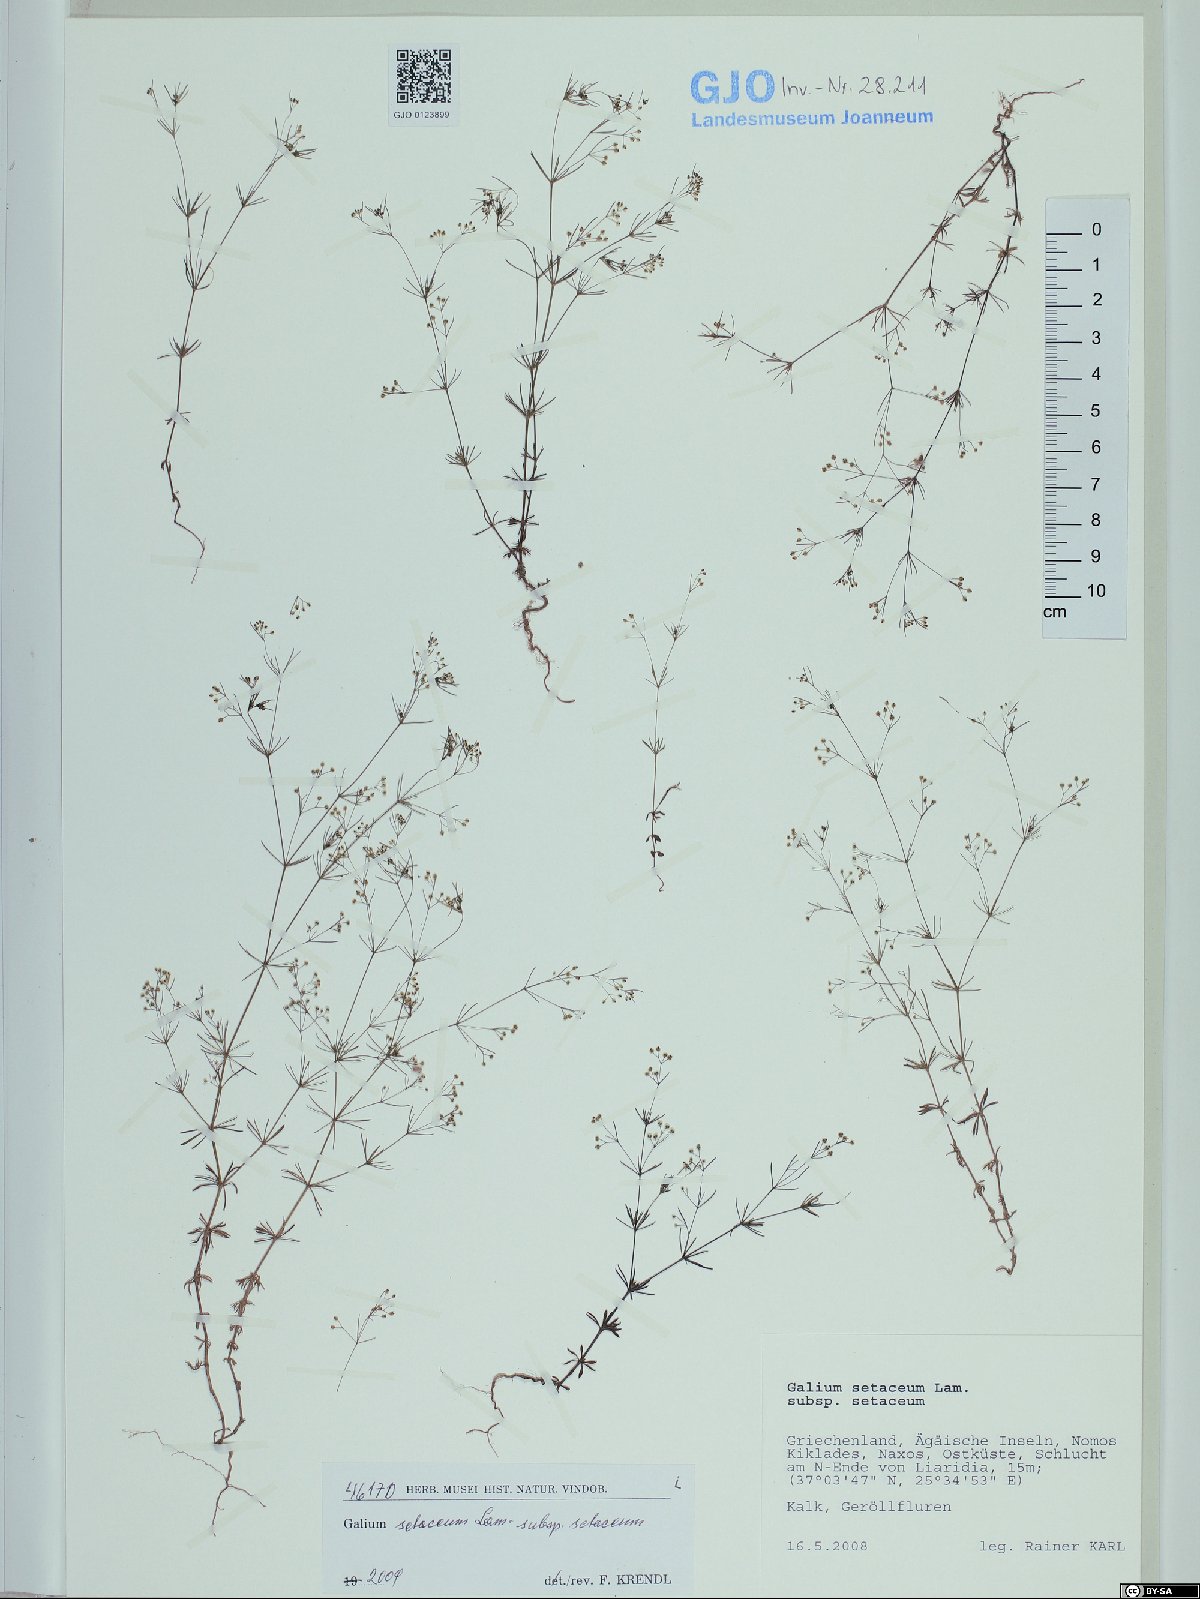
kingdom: Plantae
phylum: Tracheophyta
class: Magnoliopsida
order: Gentianales
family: Rubiaceae
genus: Galium
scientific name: Galium setaceum
